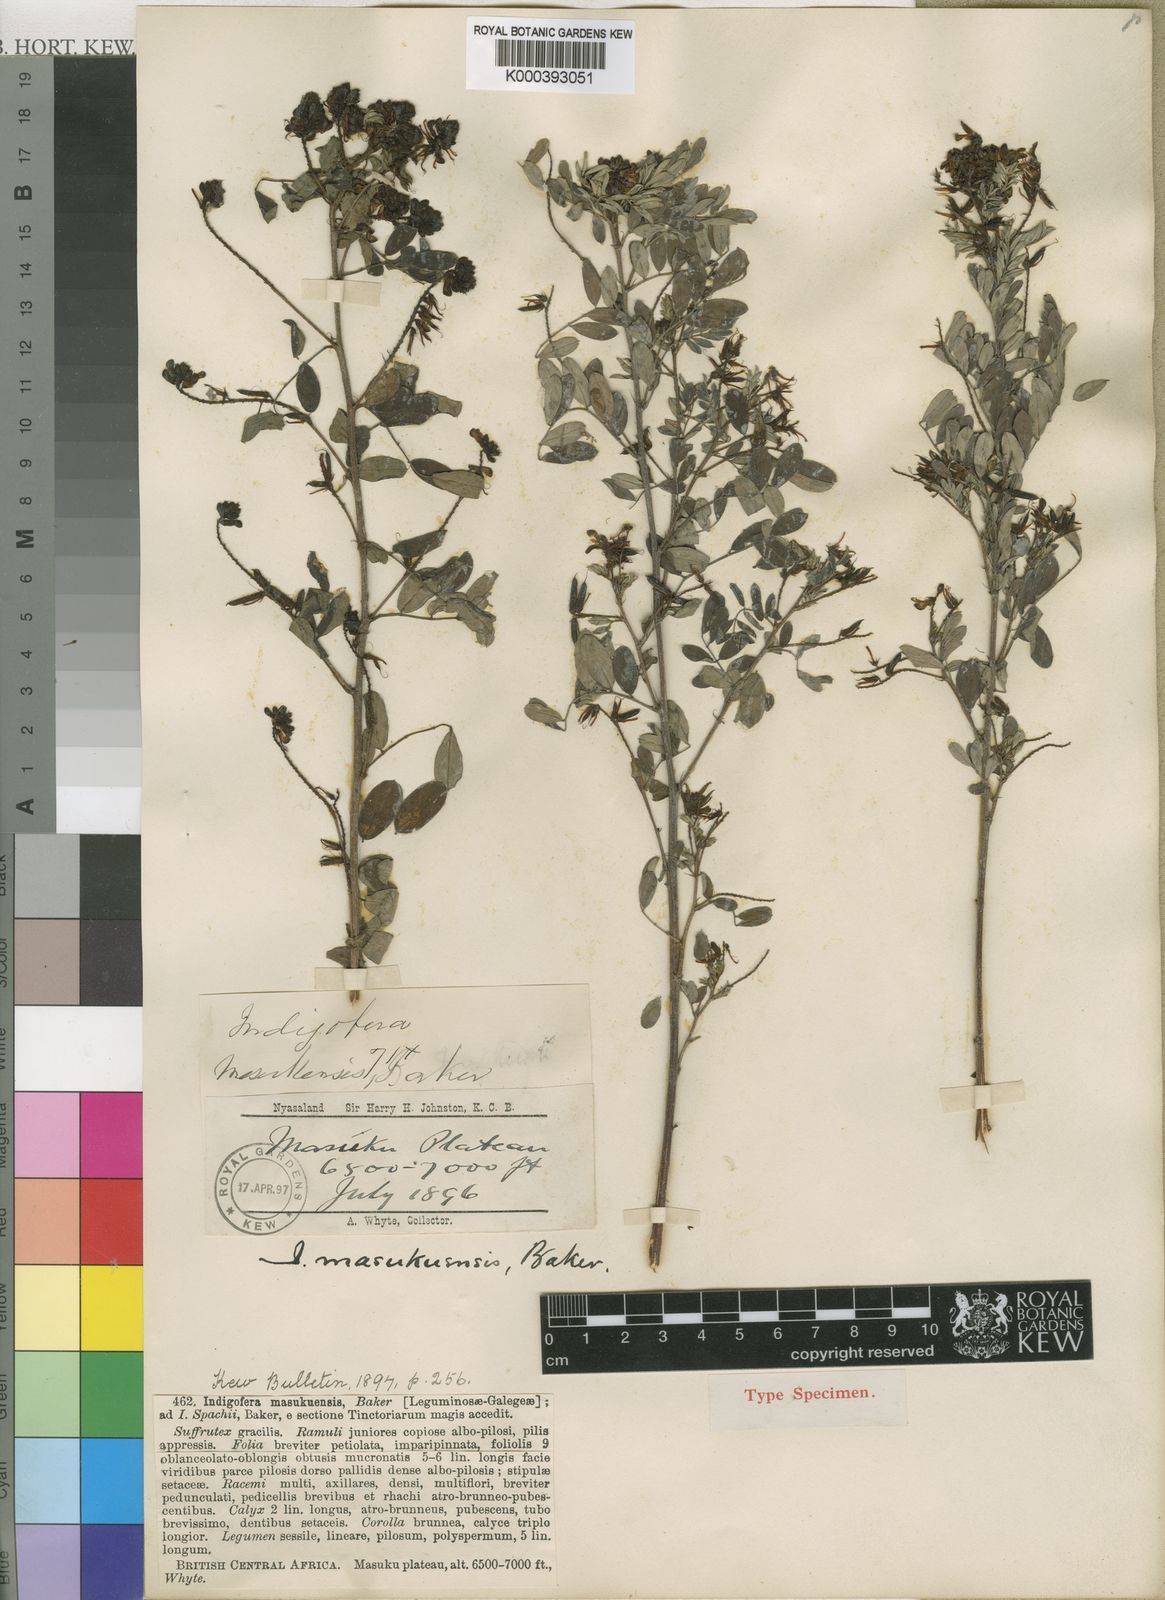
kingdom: Plantae
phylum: Tracheophyta
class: Magnoliopsida
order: Fabales
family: Fabaceae
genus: Indigofera
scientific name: Indigofera atriceps
